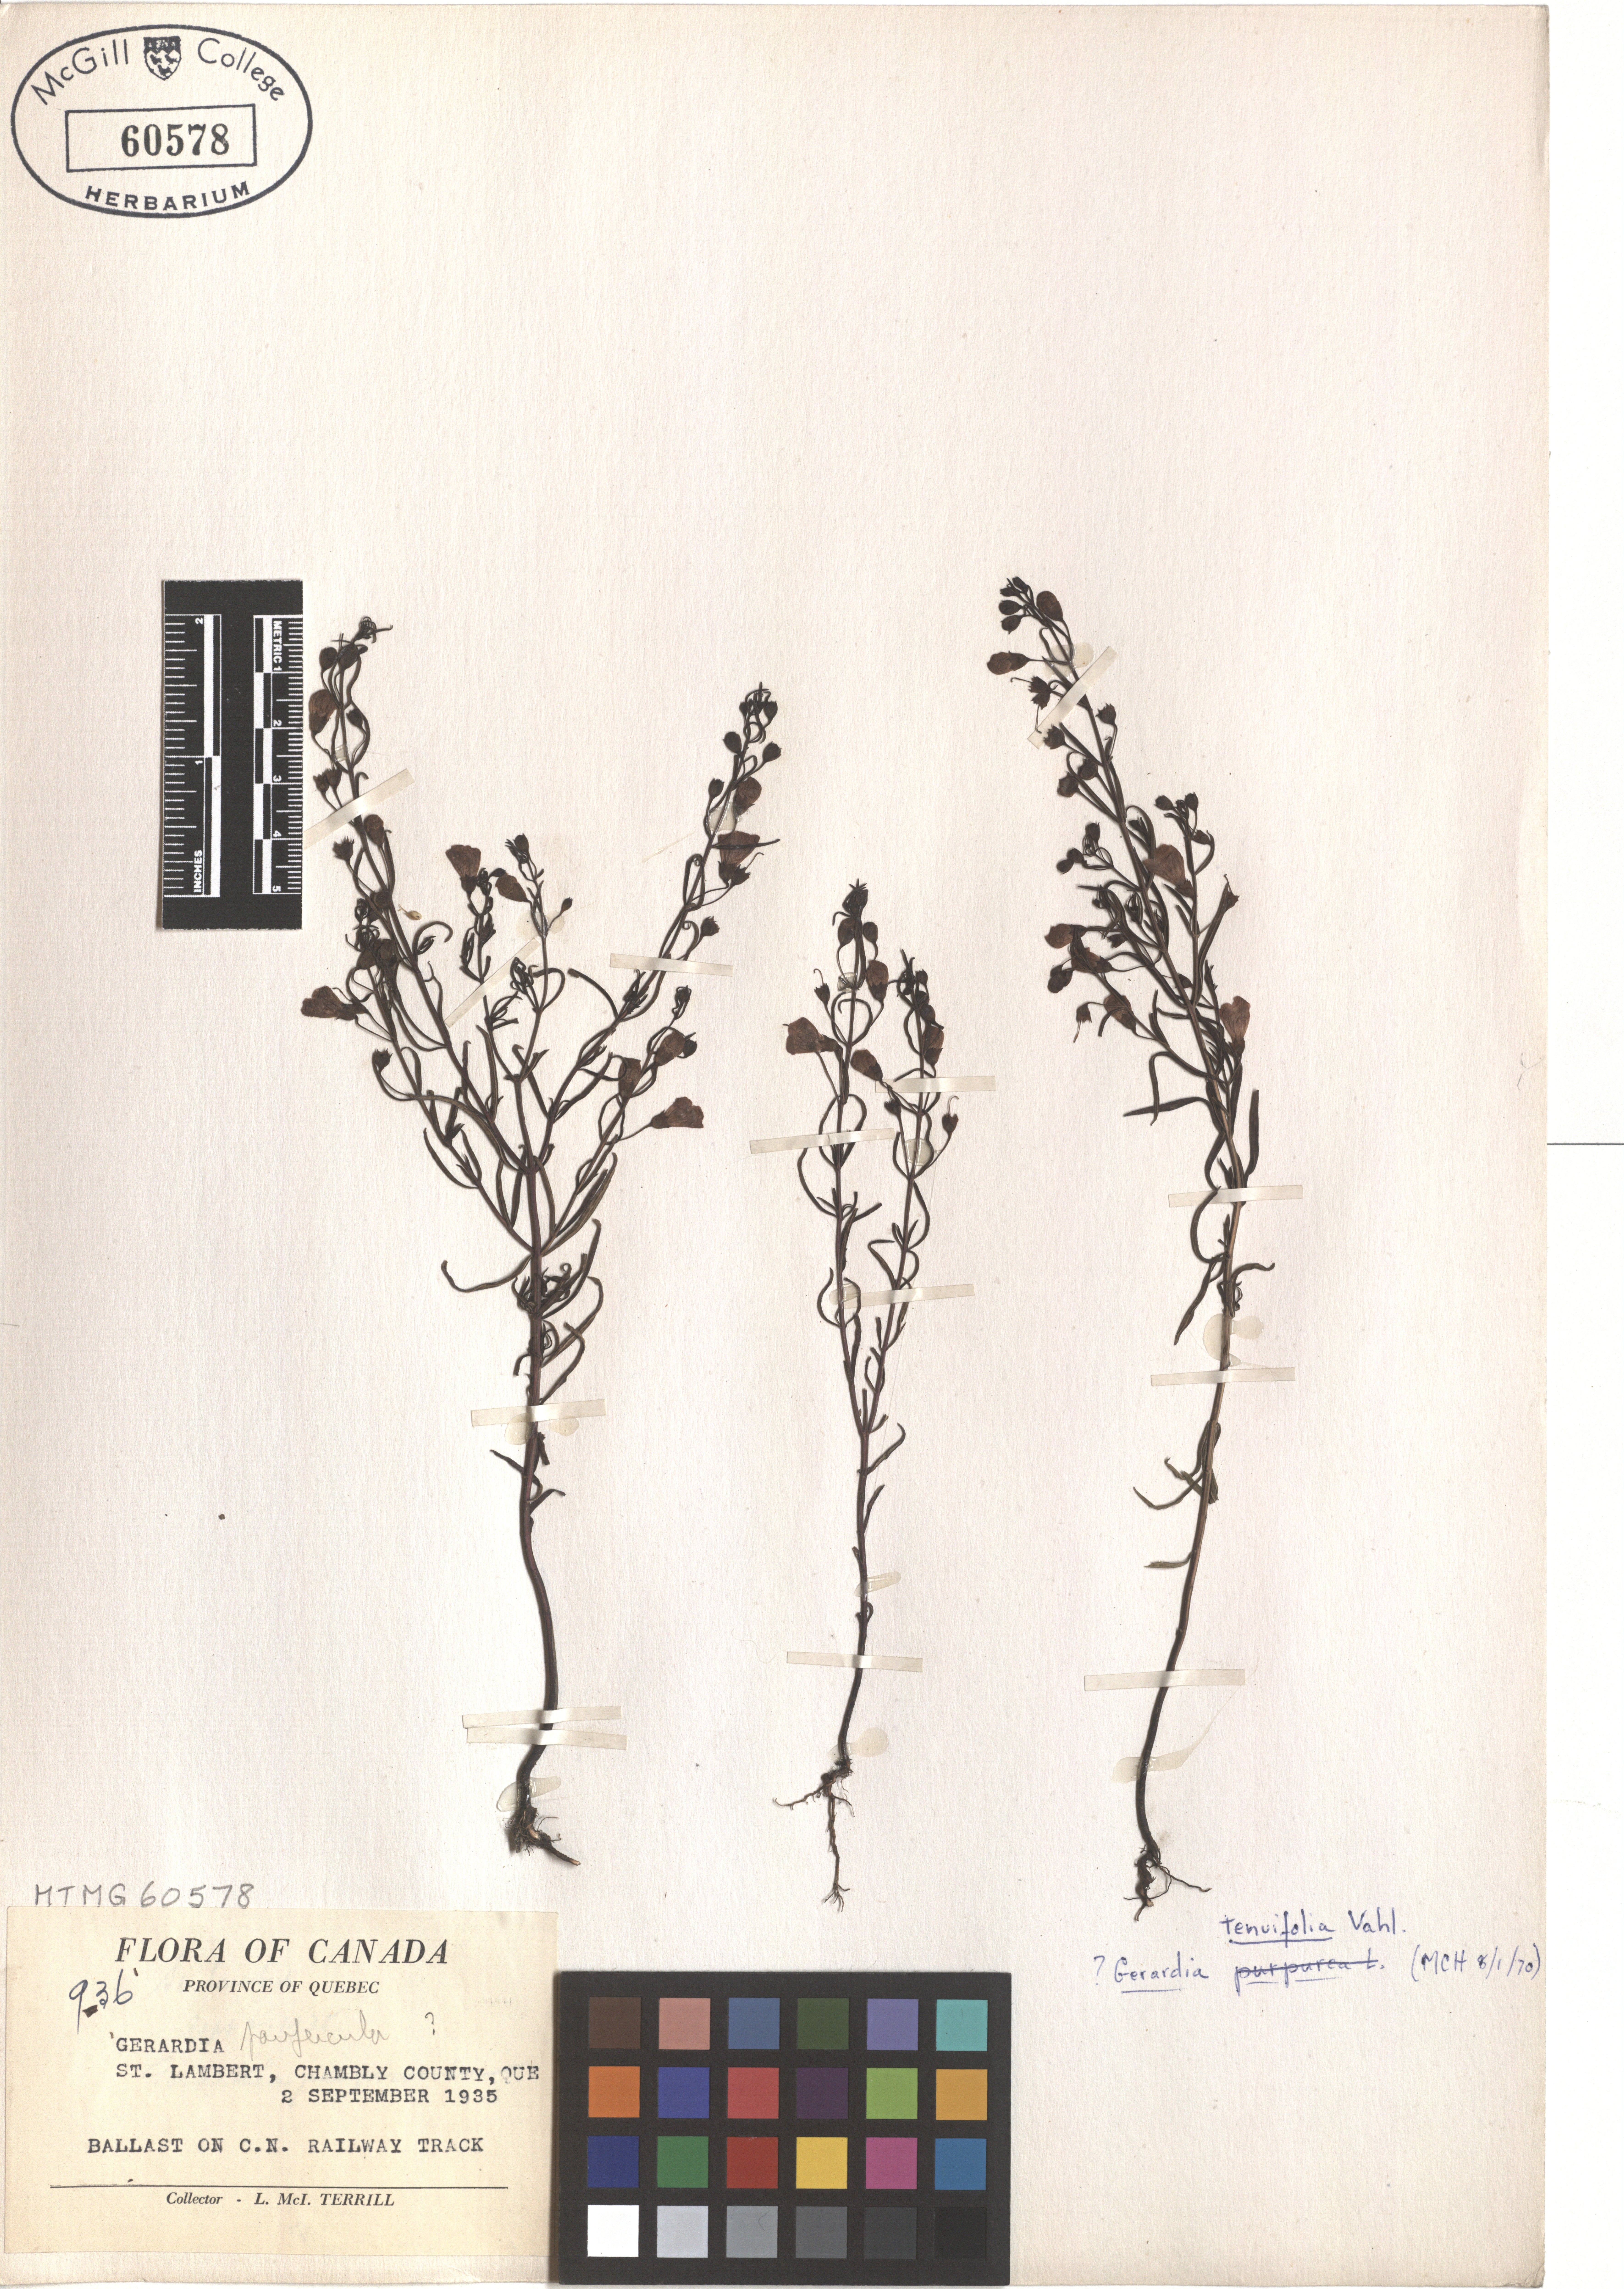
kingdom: Plantae
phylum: Tracheophyta
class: Magnoliopsida
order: Lamiales
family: Orobanchaceae
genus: Agalinis
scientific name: Agalinis tenuifolia
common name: Slender agalinis
